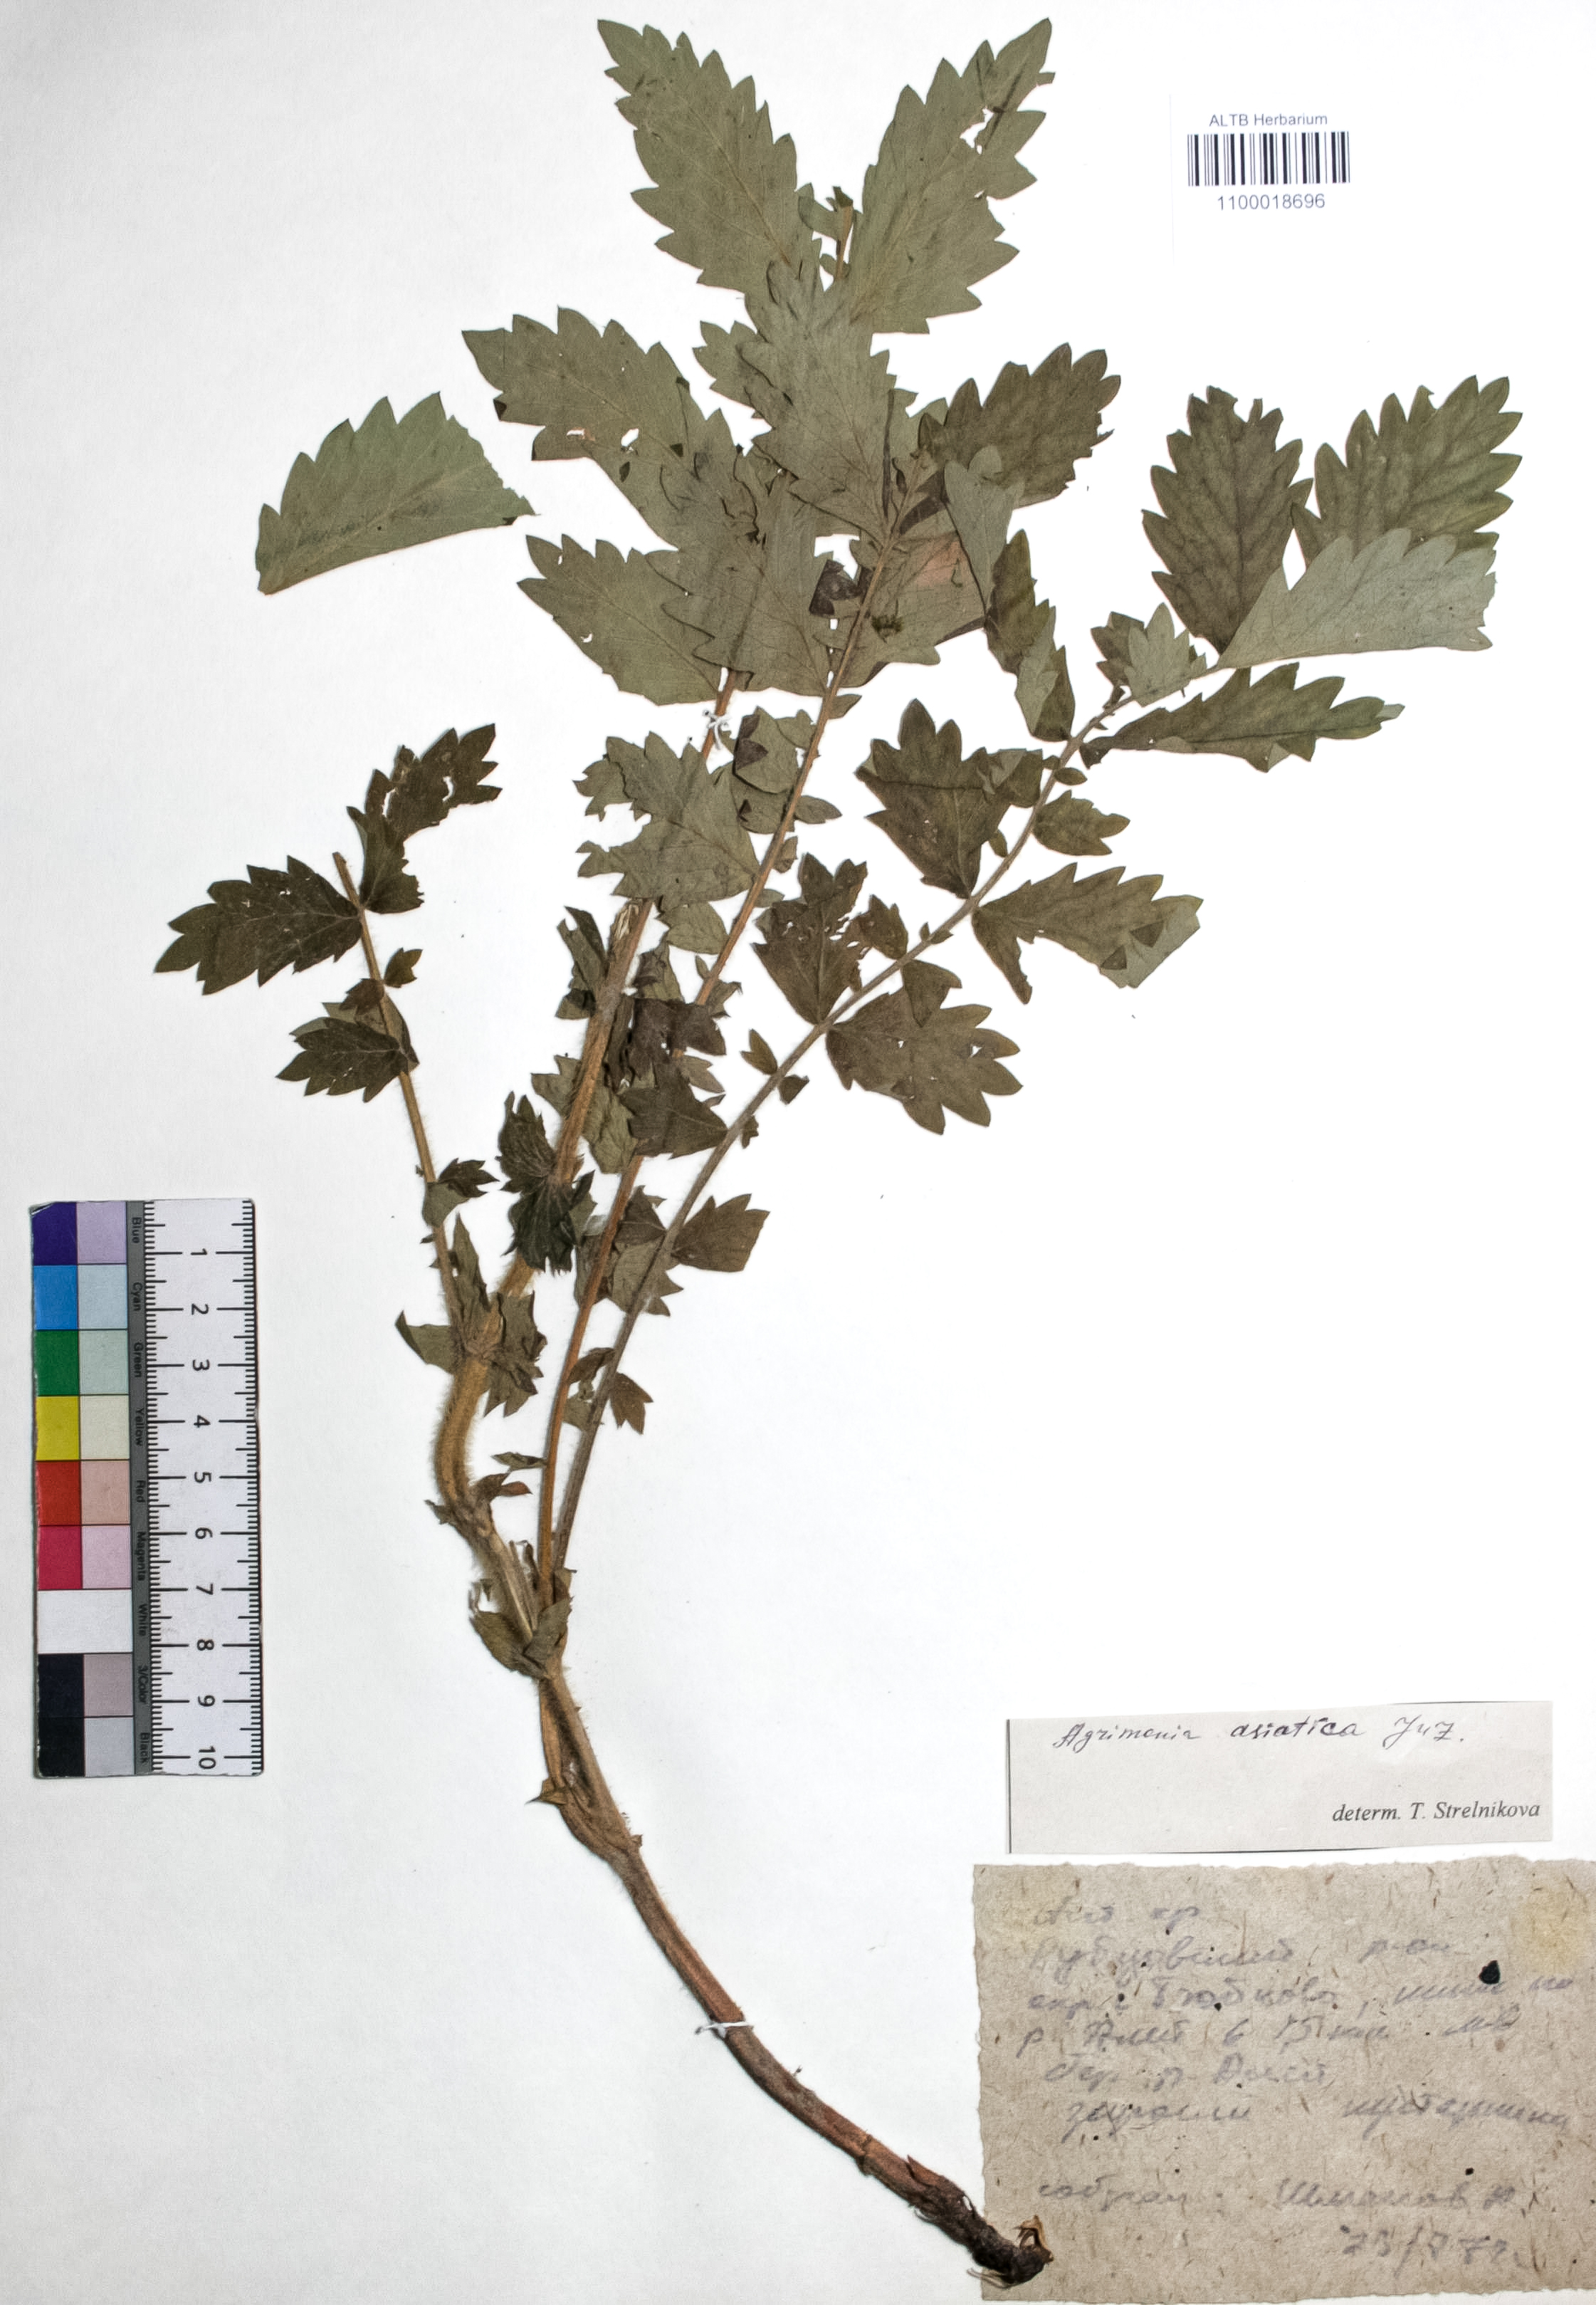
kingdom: Plantae
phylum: Tracheophyta
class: Magnoliopsida
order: Rosales
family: Rosaceae
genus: Agrimonia
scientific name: Agrimonia eupatoria
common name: Agrimony
